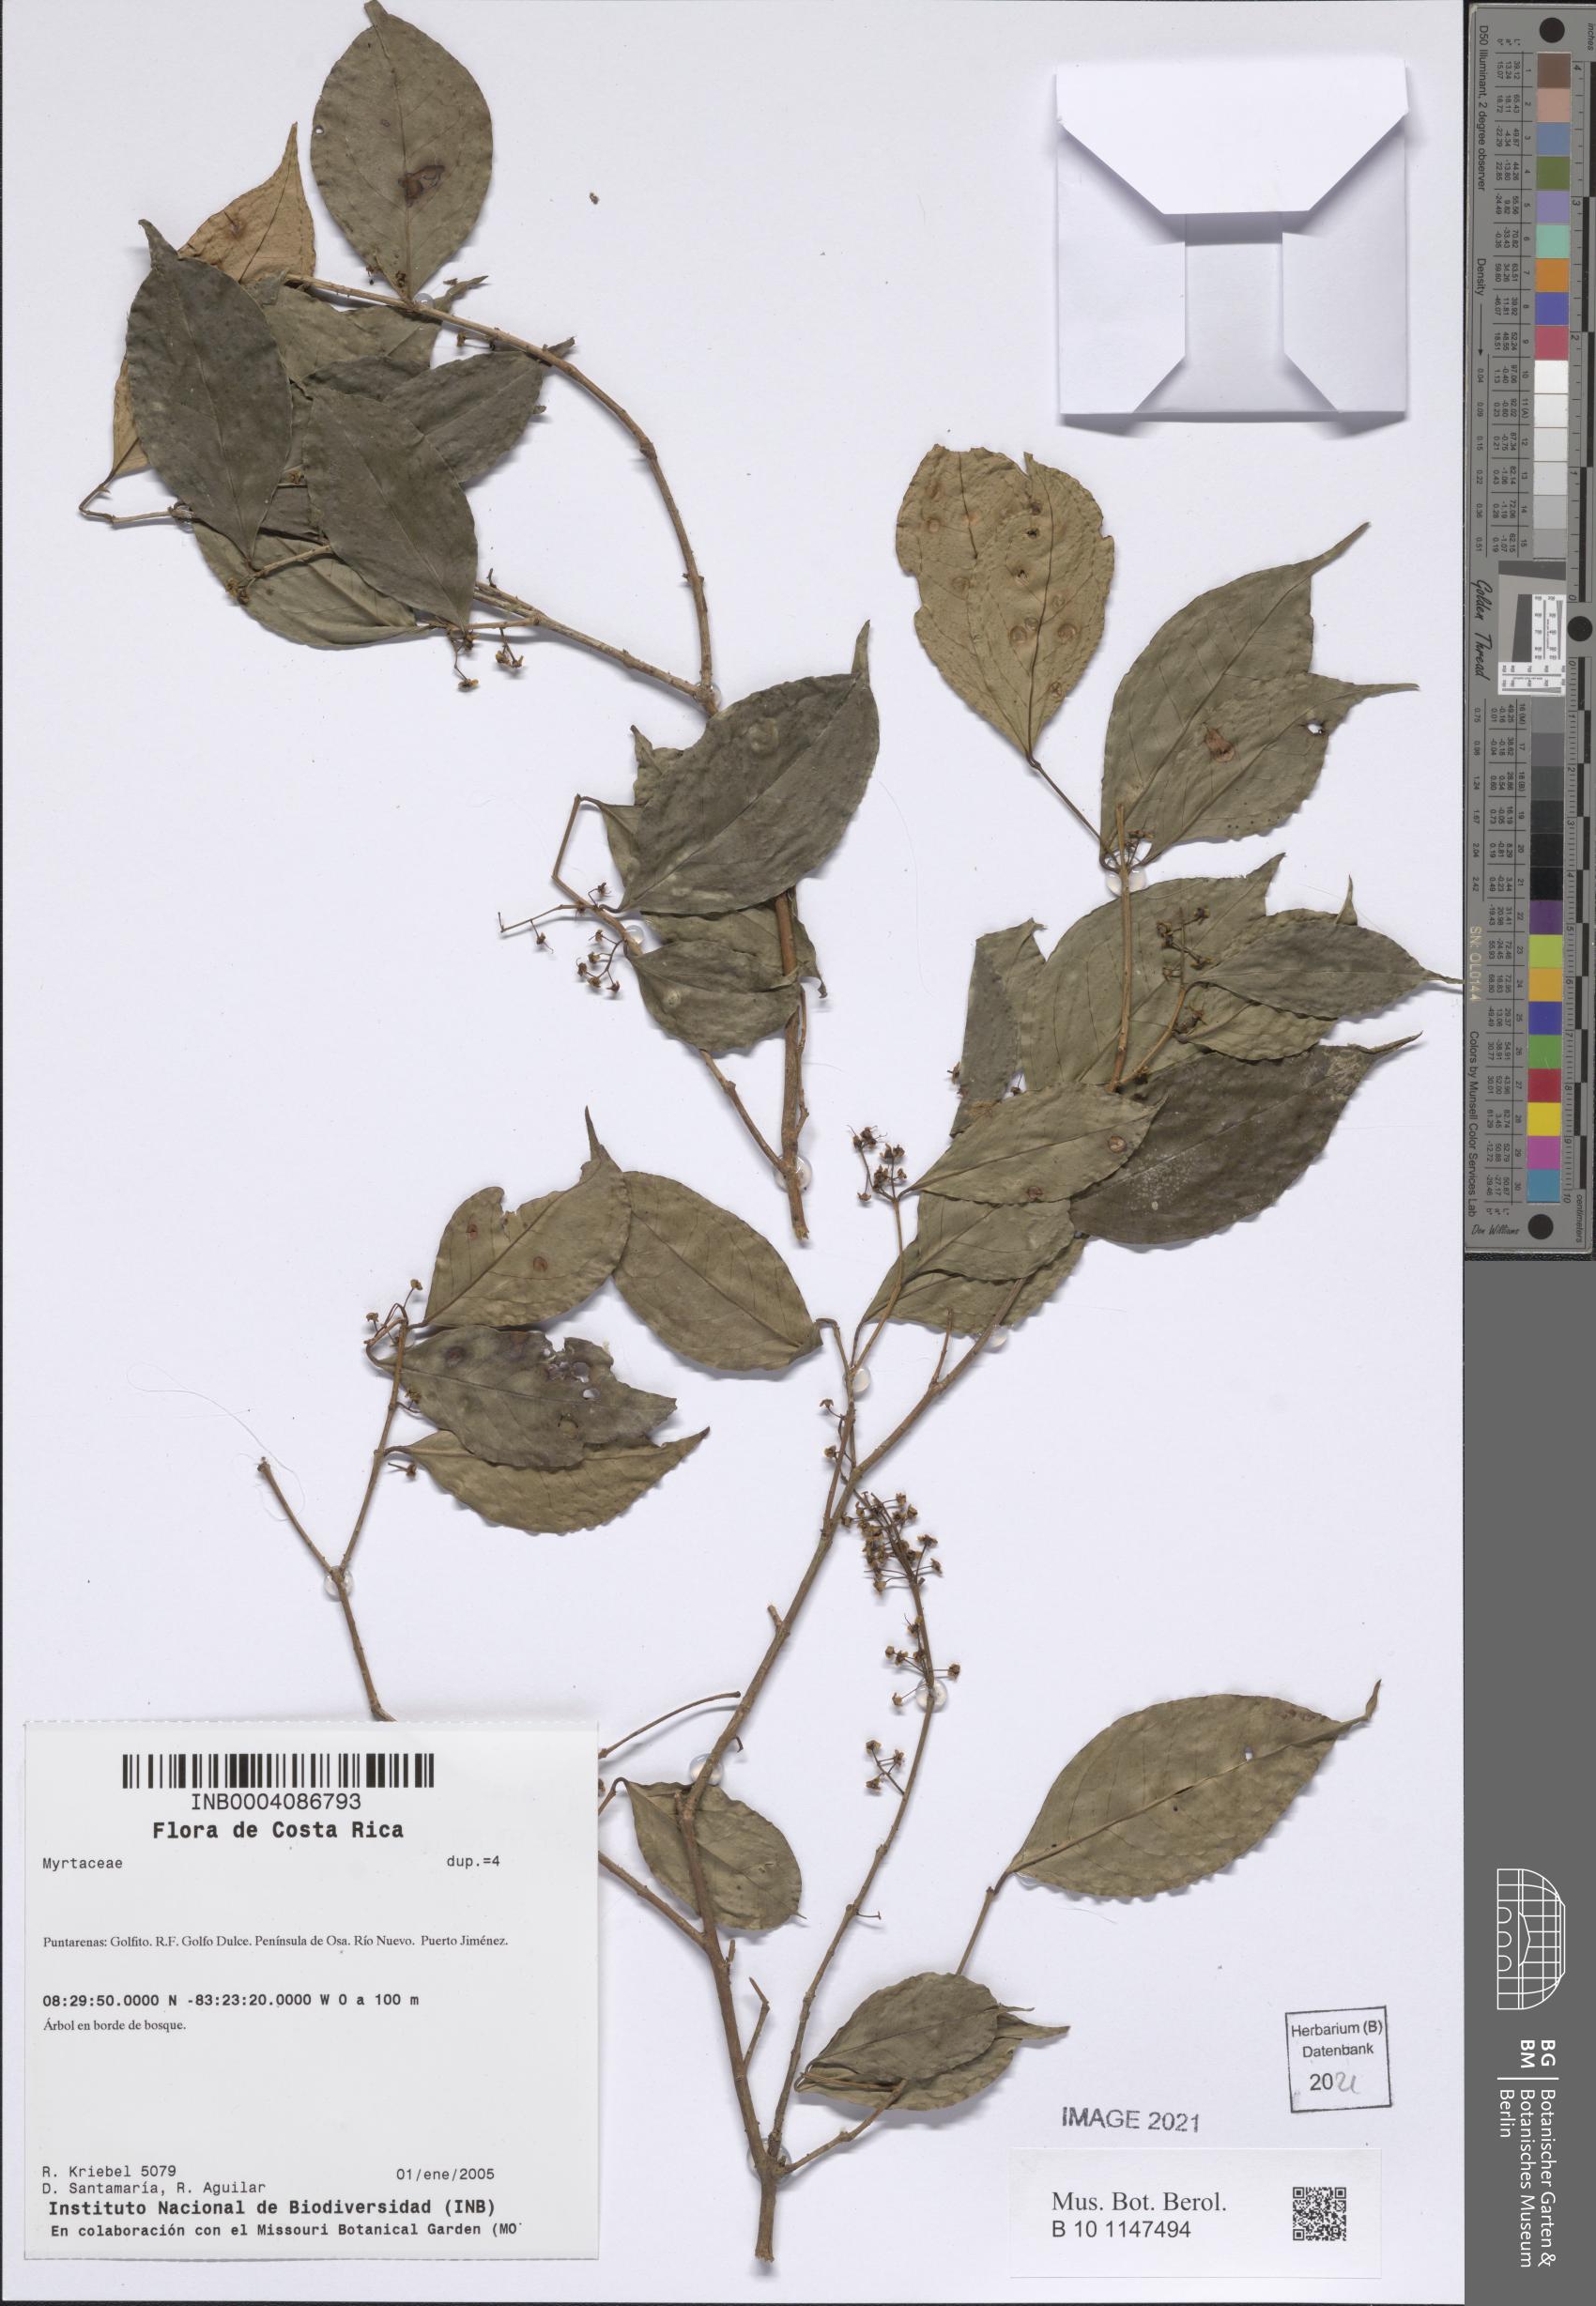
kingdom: Plantae
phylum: Tracheophyta
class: Magnoliopsida
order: Myrtales
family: Myrtaceae
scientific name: Myrtaceae
